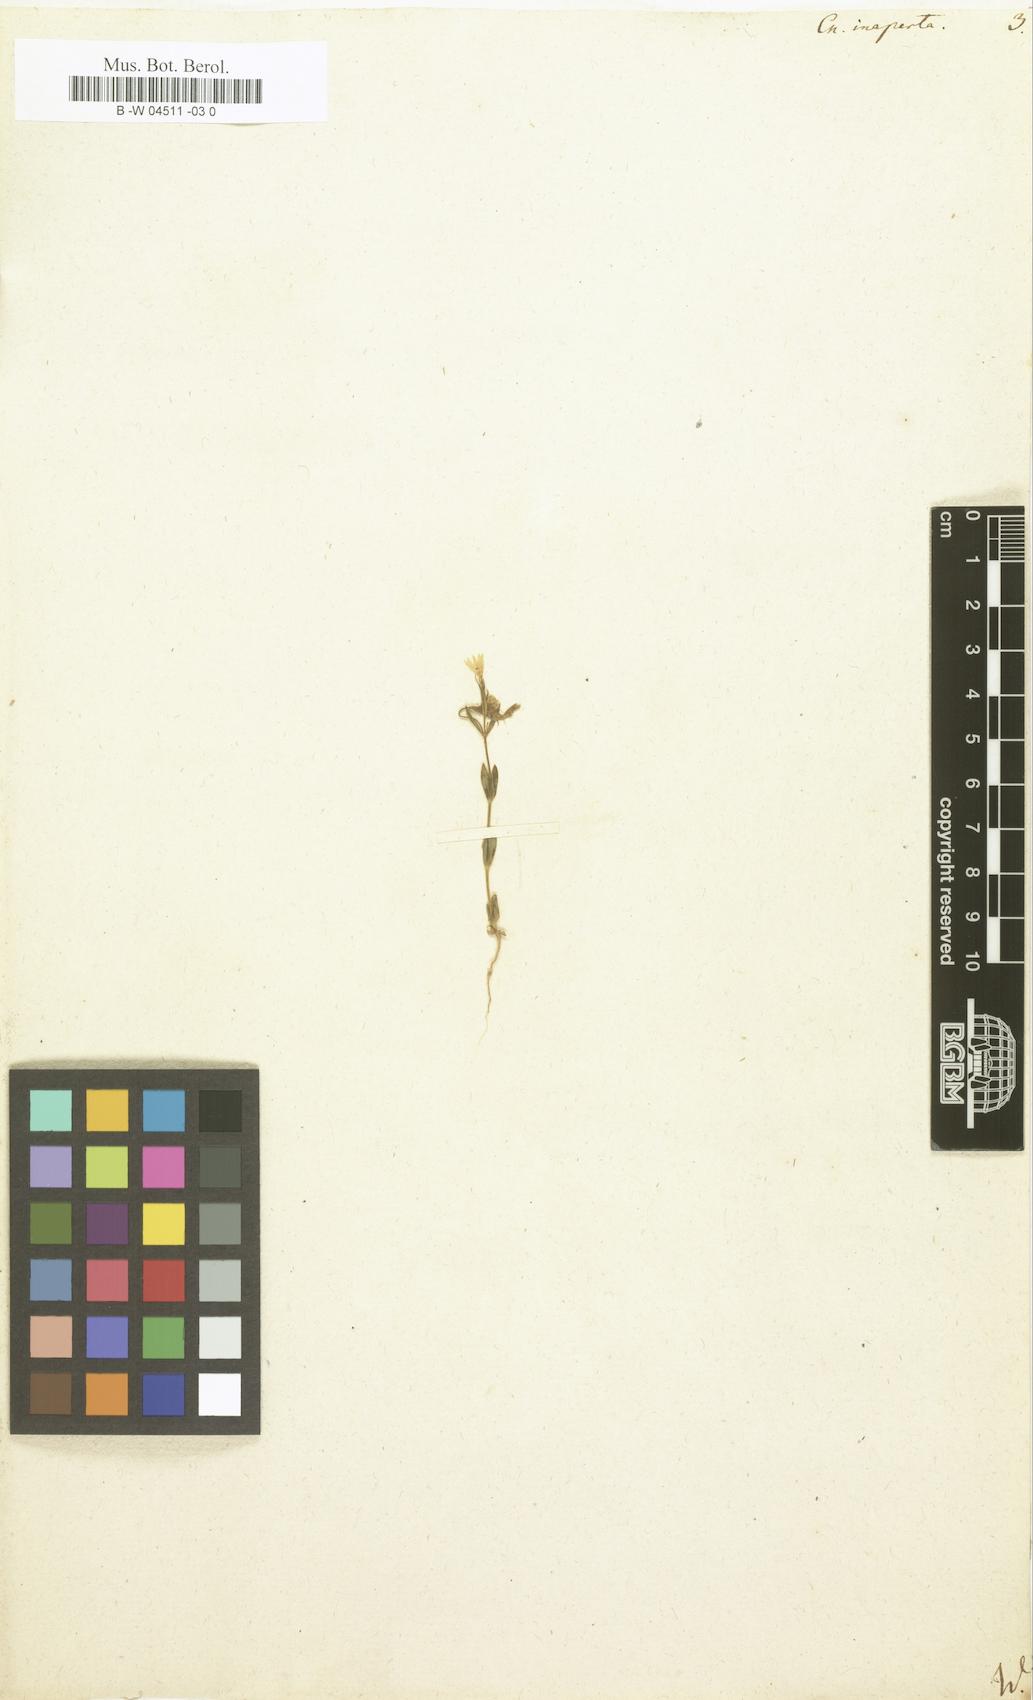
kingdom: Plantae
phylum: Tracheophyta
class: Magnoliopsida
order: Gentianales
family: Gentianaceae
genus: Centaurium
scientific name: Centaurium pulchellum
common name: Lesser centaury
